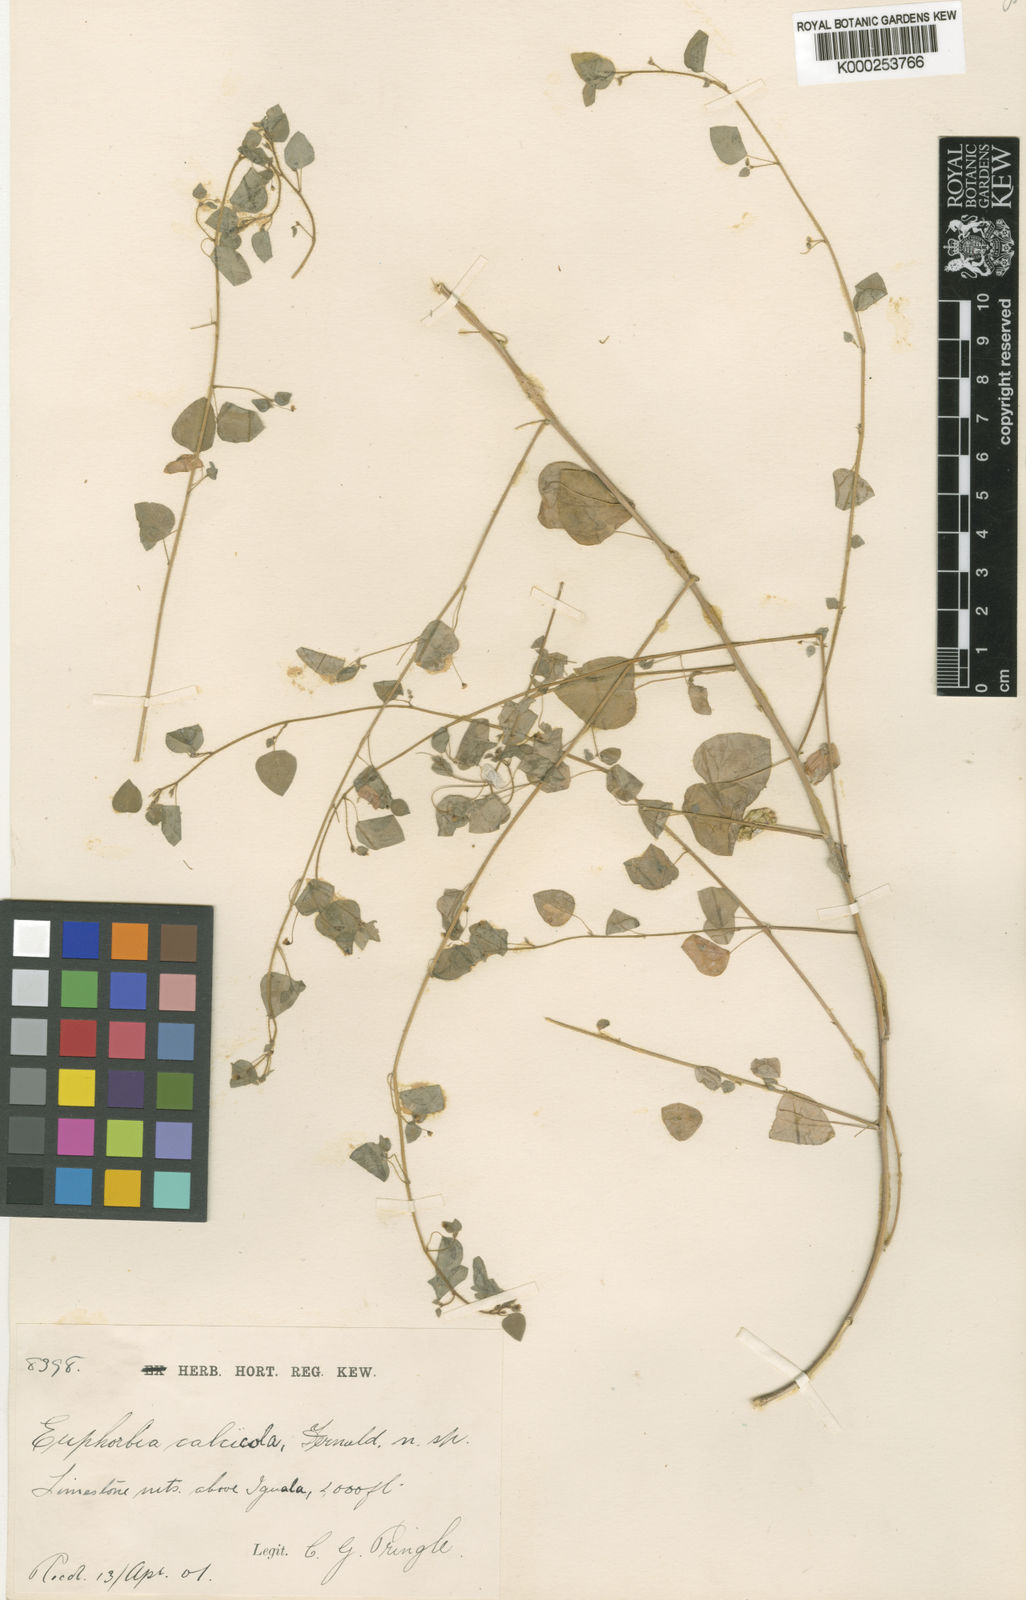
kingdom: Plantae
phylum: Tracheophyta
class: Magnoliopsida
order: Malpighiales
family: Euphorbiaceae
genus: Euphorbia
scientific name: Euphorbia calcicola
